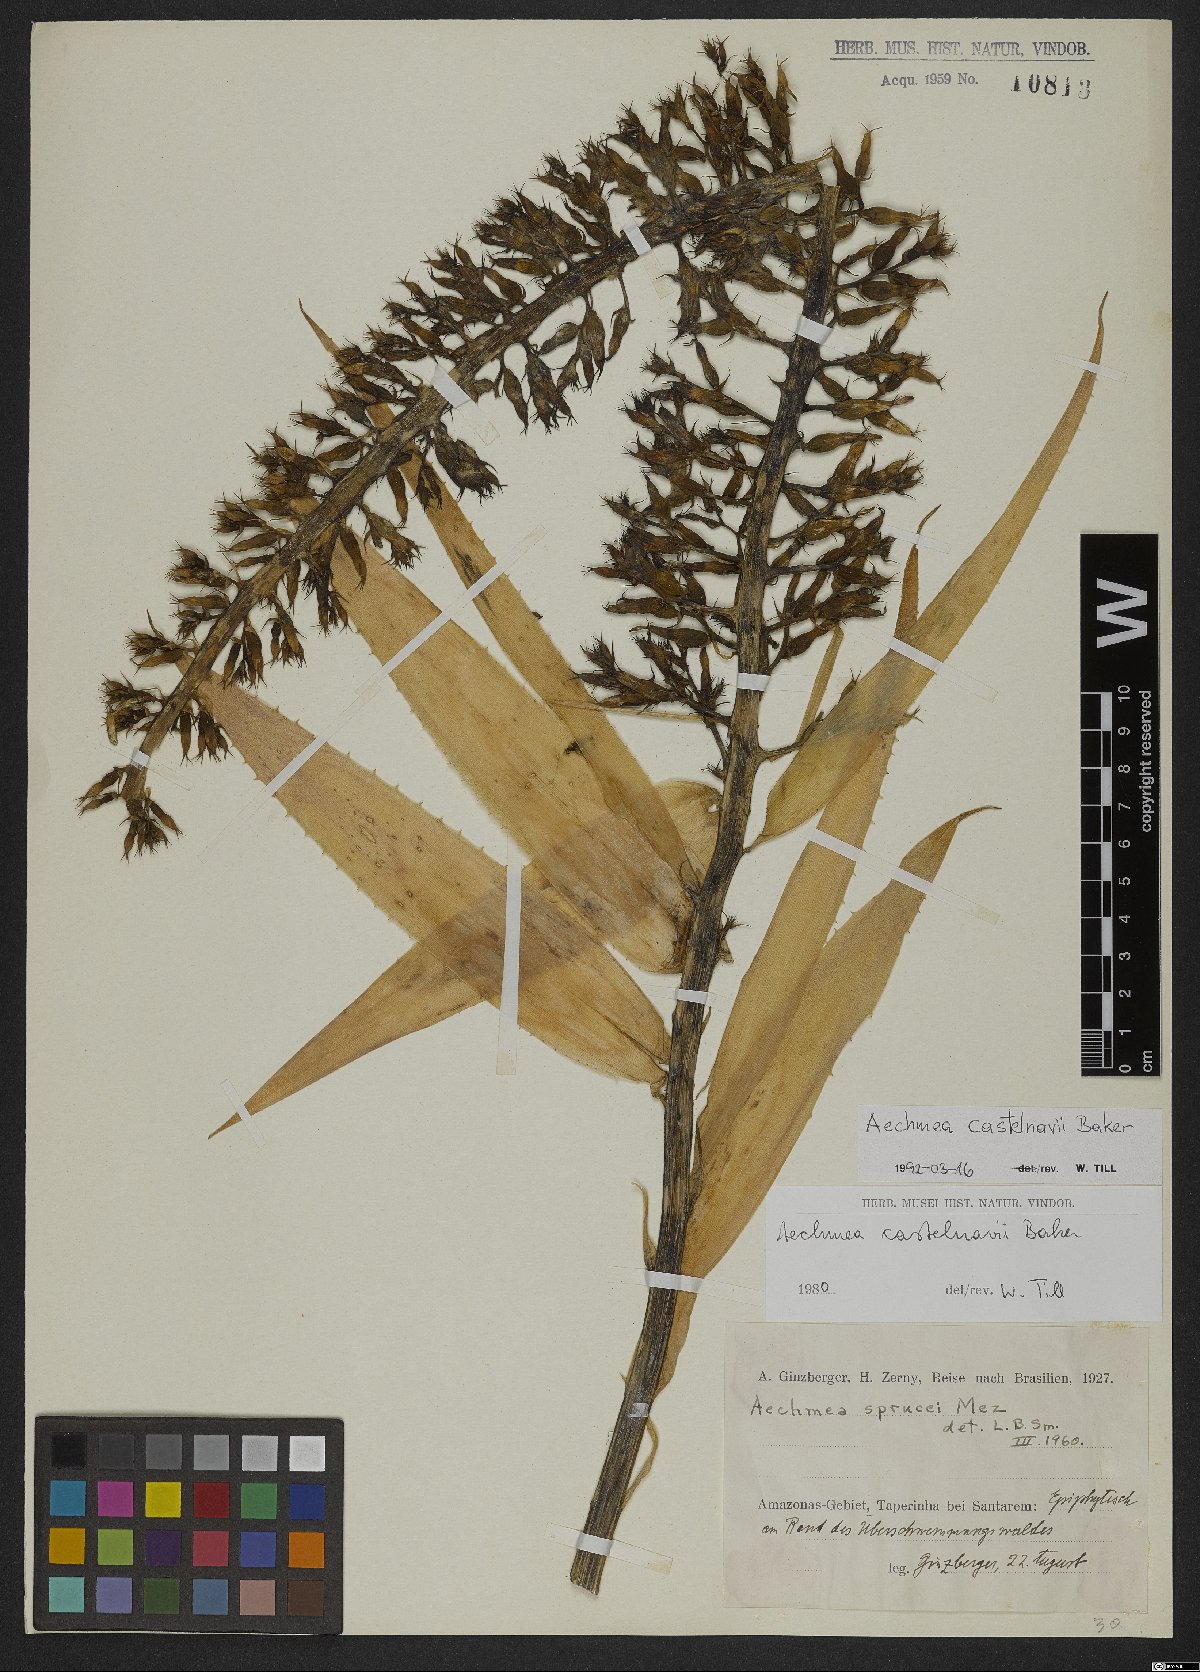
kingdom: Plantae
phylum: Tracheophyta
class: Liliopsida
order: Poales
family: Bromeliaceae
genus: Aechmea
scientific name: Aechmea castelnavii
